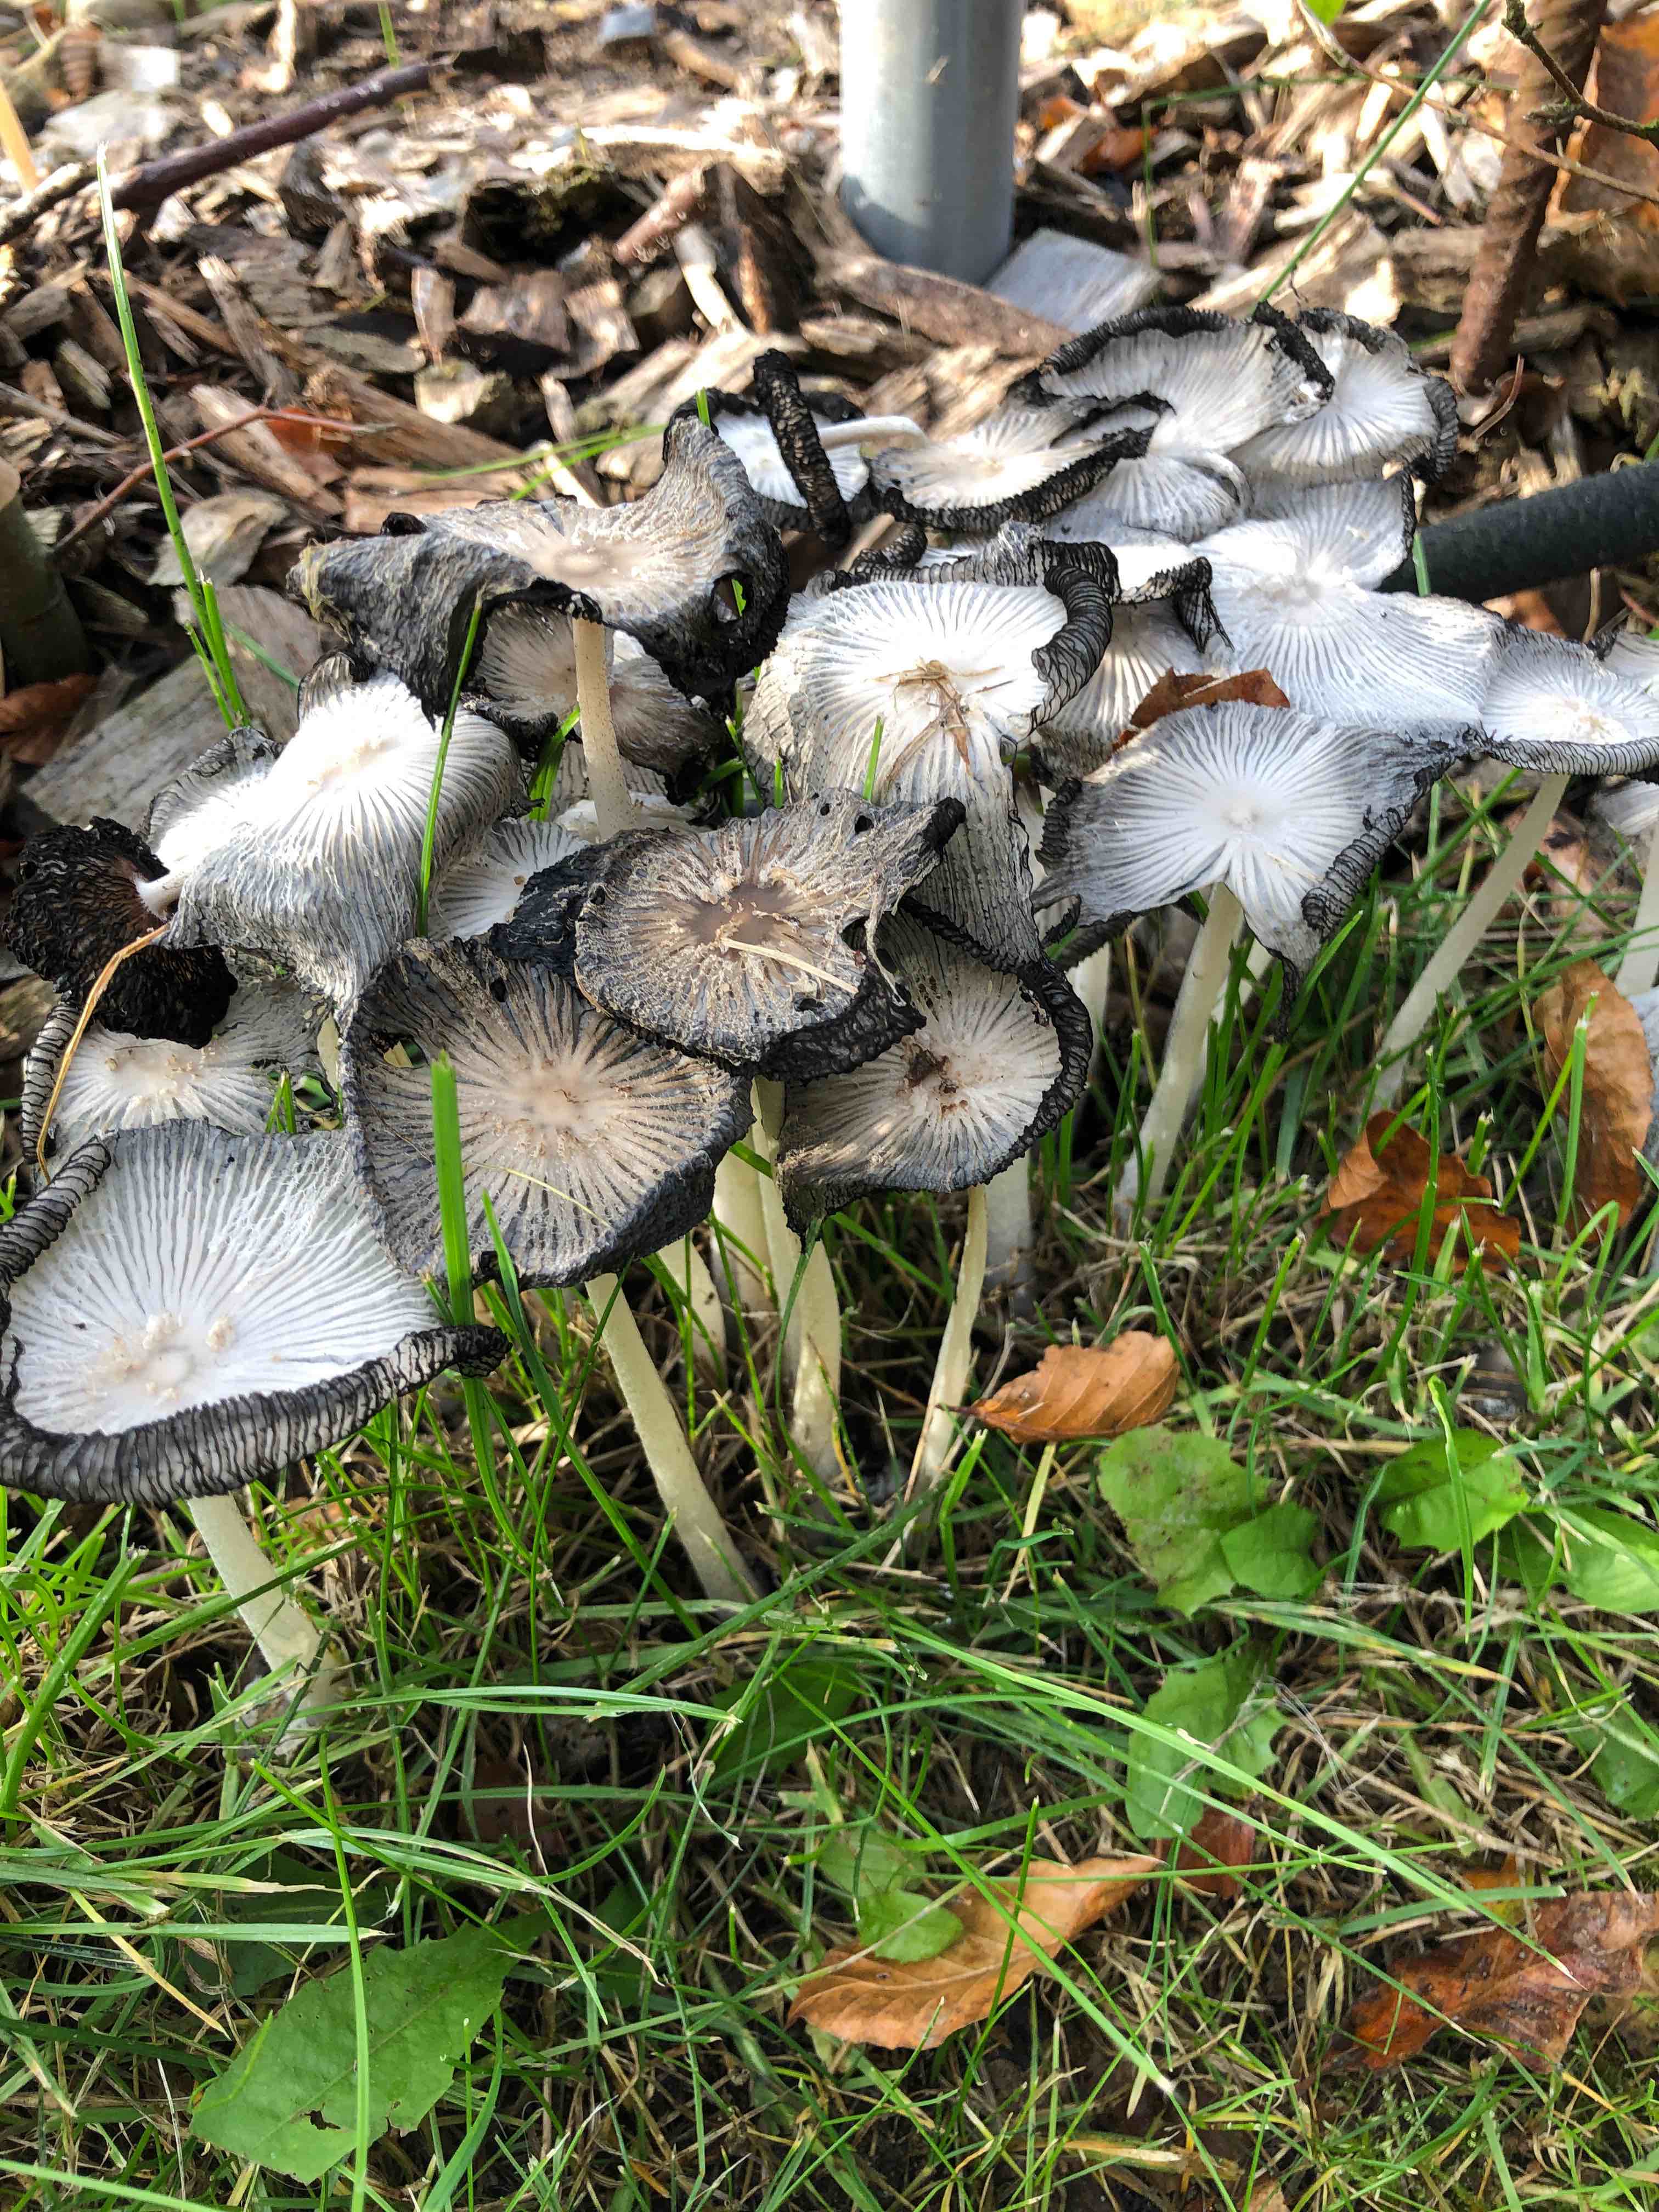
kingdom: Fungi
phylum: Basidiomycota
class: Agaricomycetes
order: Agaricales
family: Psathyrellaceae
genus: Coprinopsis
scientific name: Coprinopsis lagopus
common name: dunstokket blækhat
